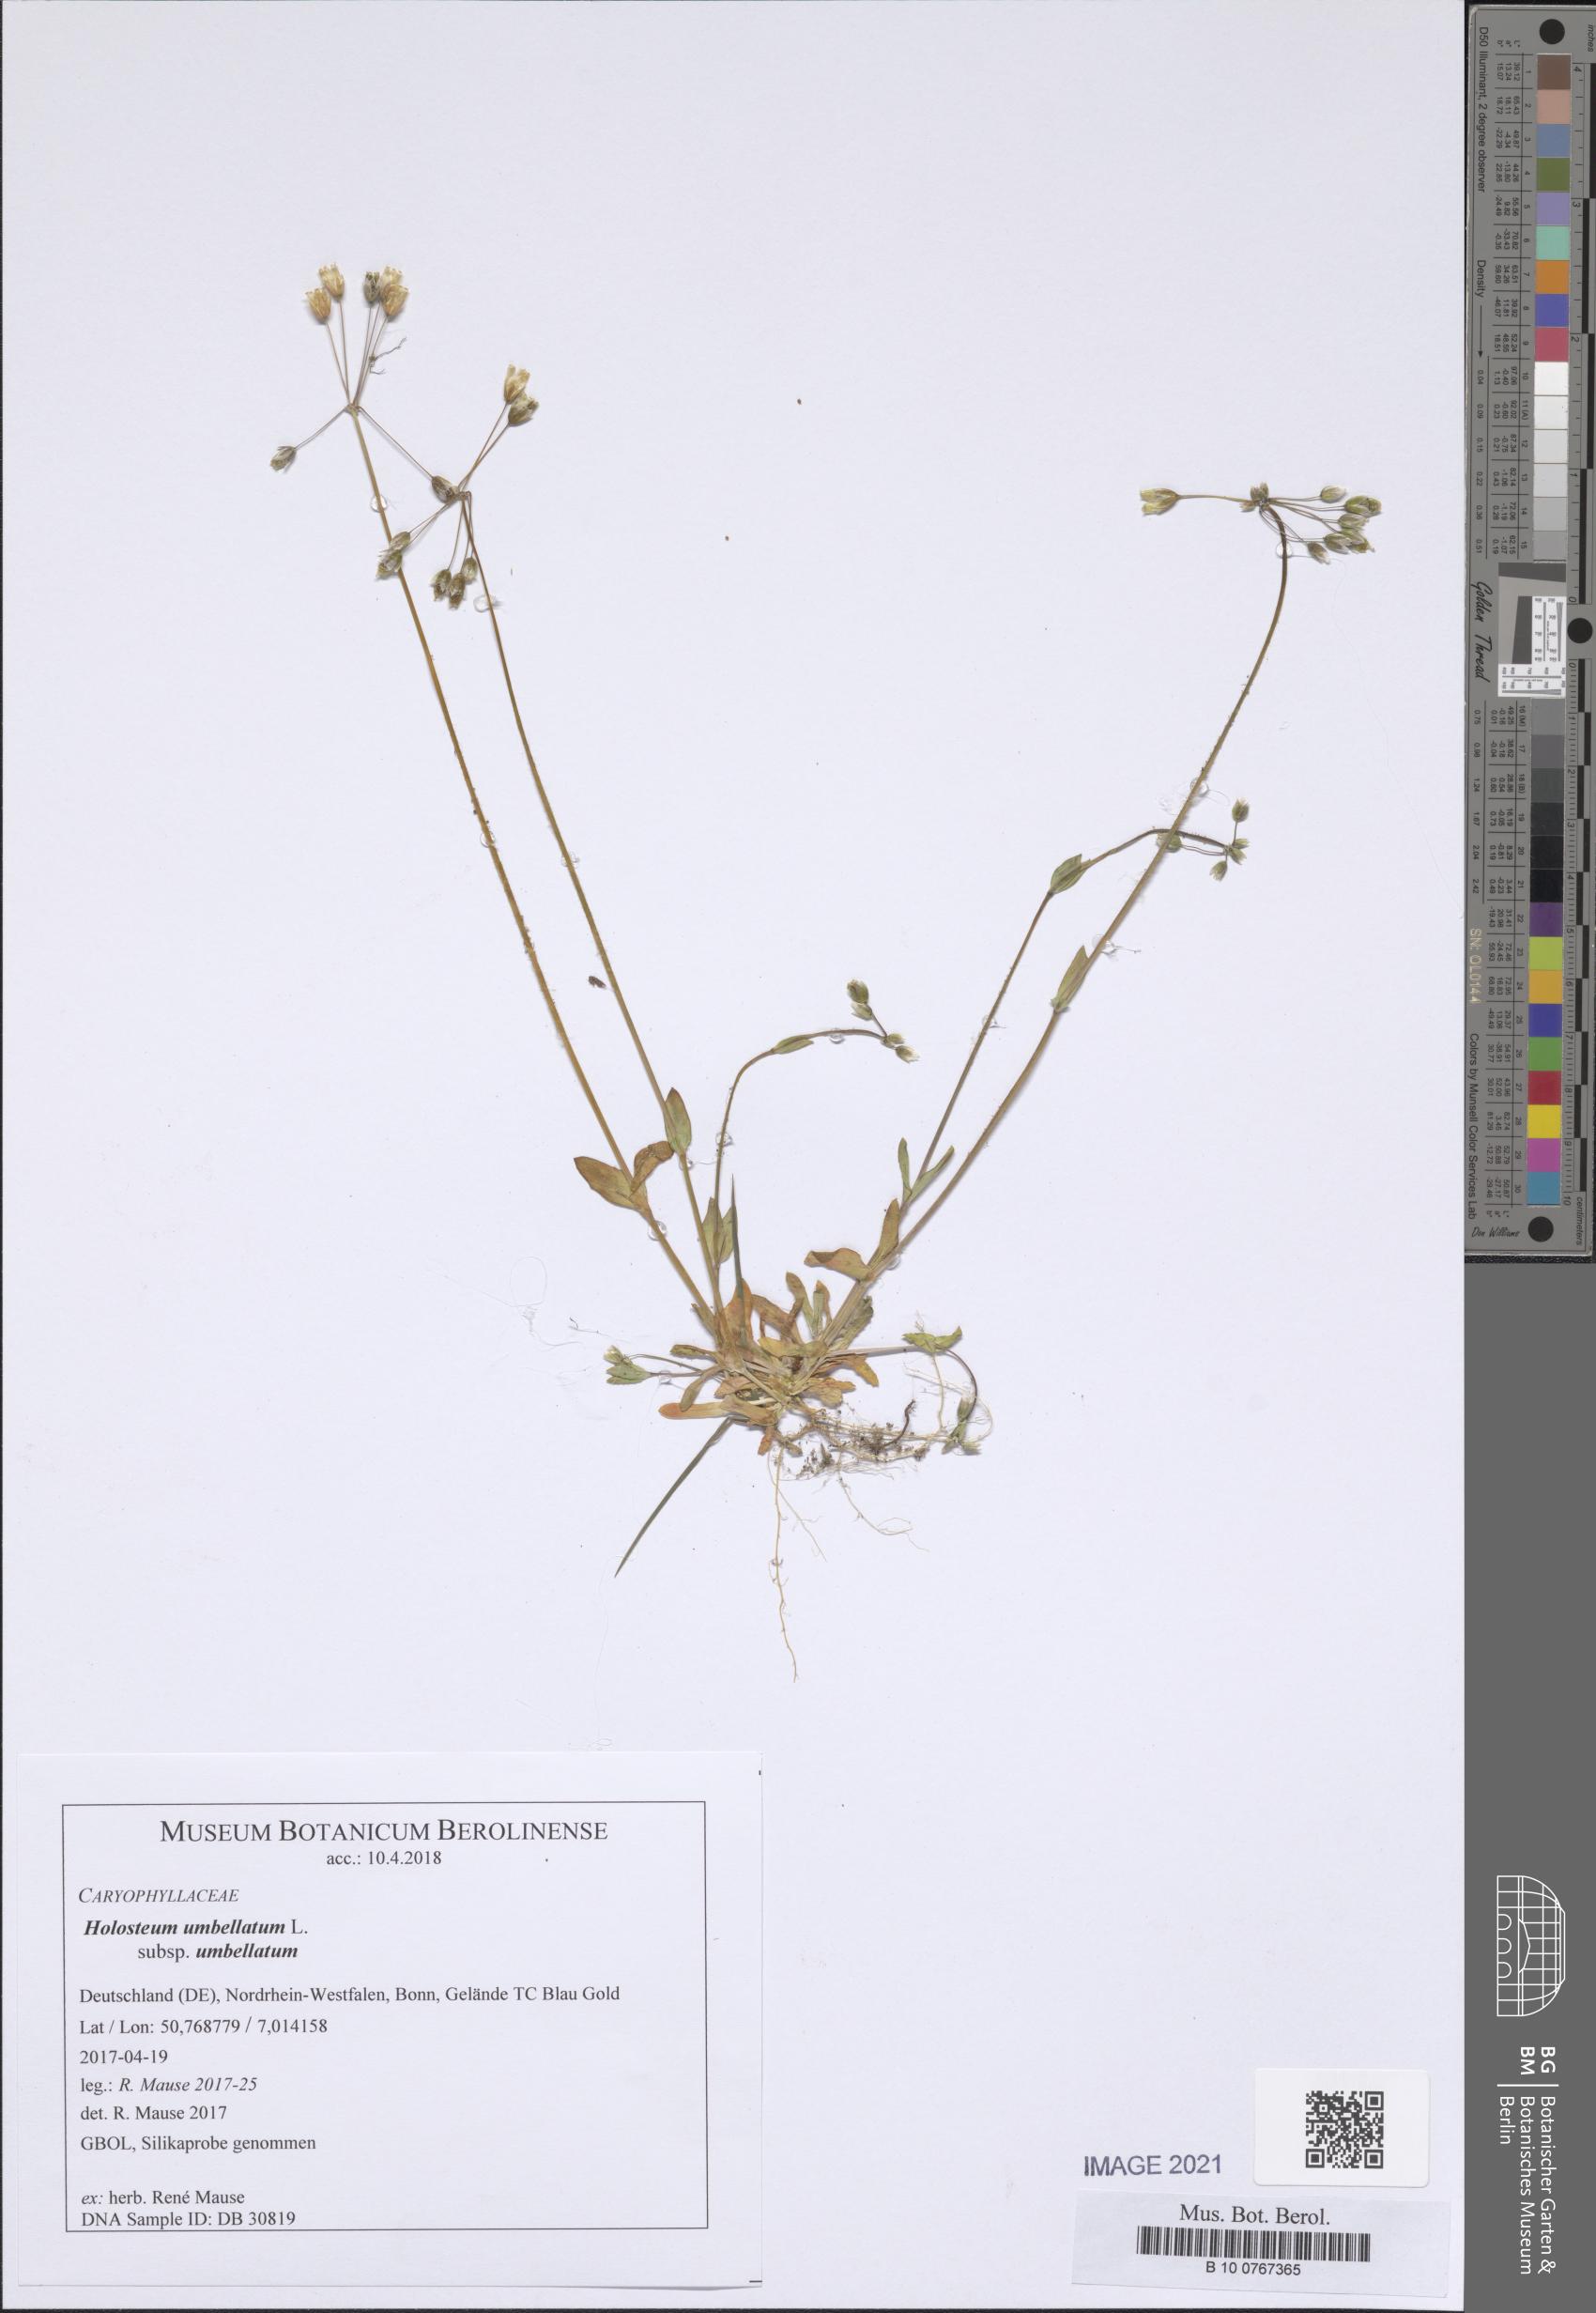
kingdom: Plantae
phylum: Tracheophyta
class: Magnoliopsida
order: Caryophyllales
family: Caryophyllaceae
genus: Holosteum
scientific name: Holosteum umbellatum
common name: Jagged chickweed
